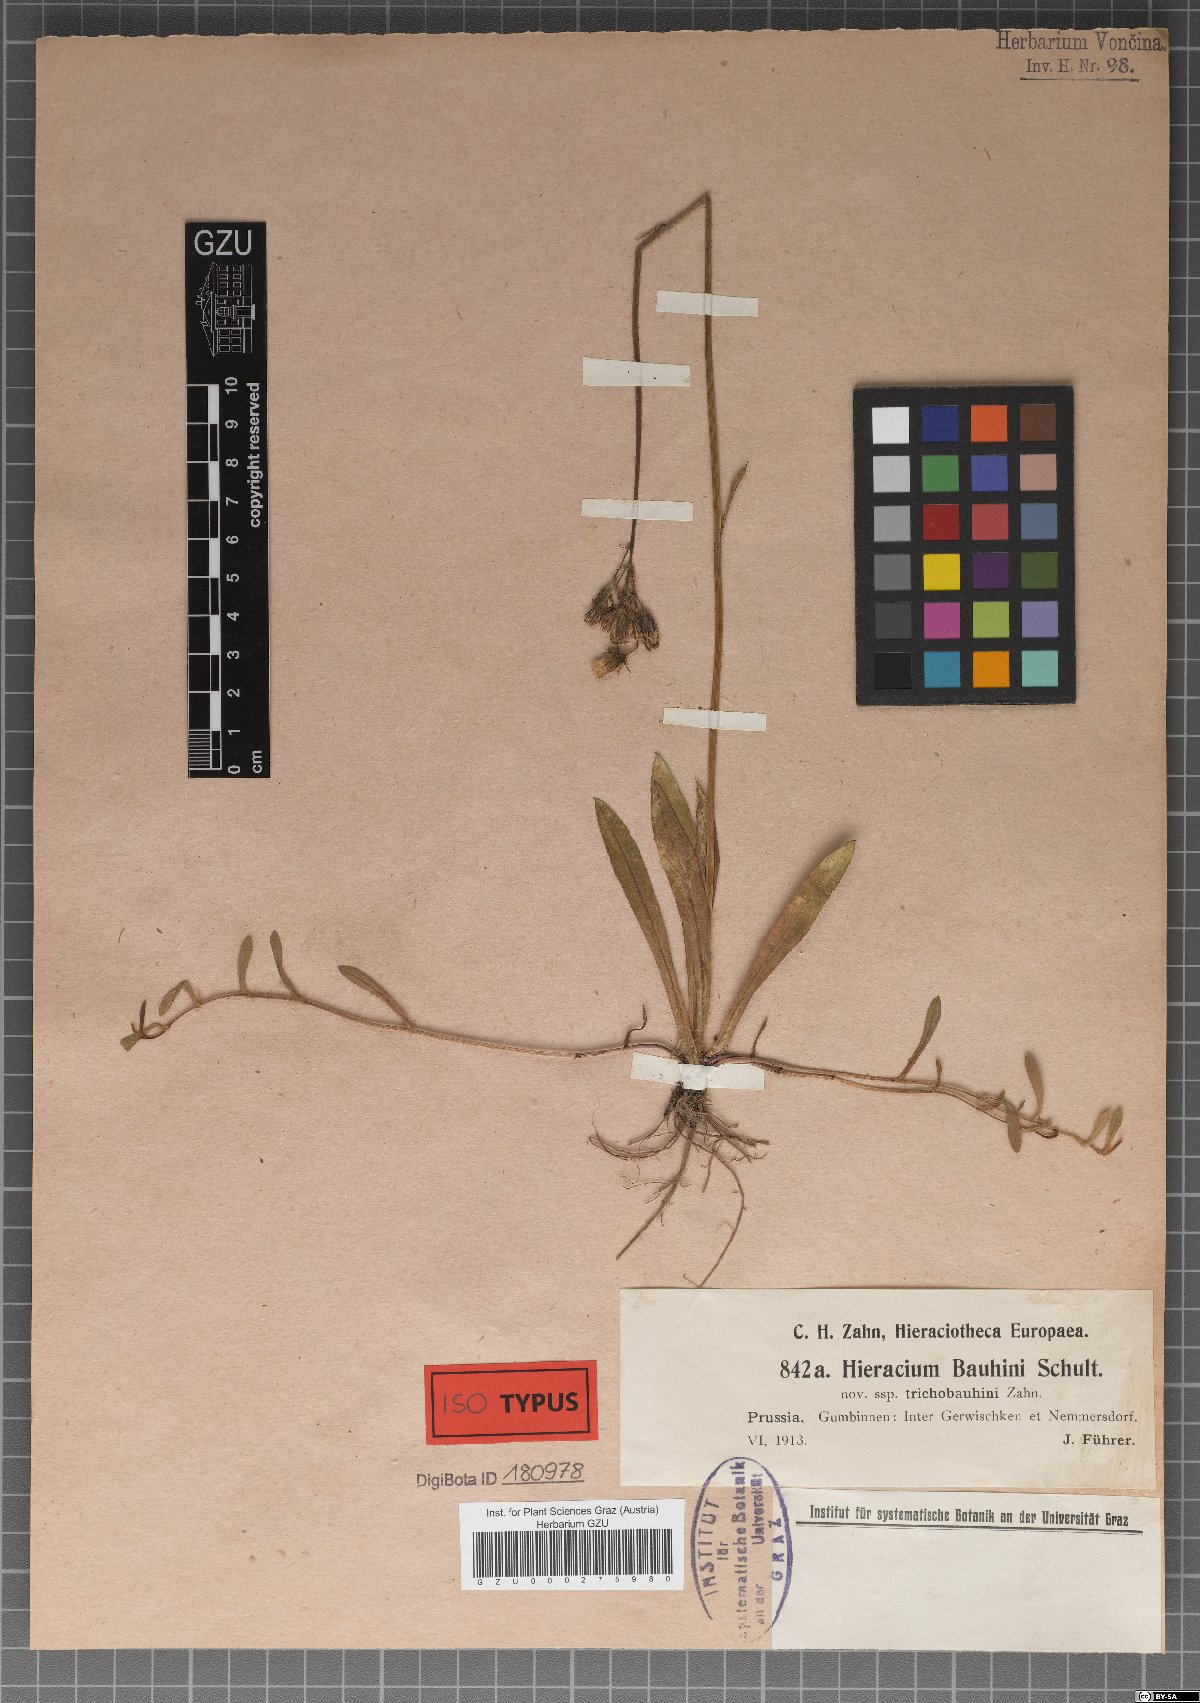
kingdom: Plantae
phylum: Tracheophyta
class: Magnoliopsida
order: Asterales
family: Asteraceae
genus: Pilosella
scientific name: Pilosella bauhini
